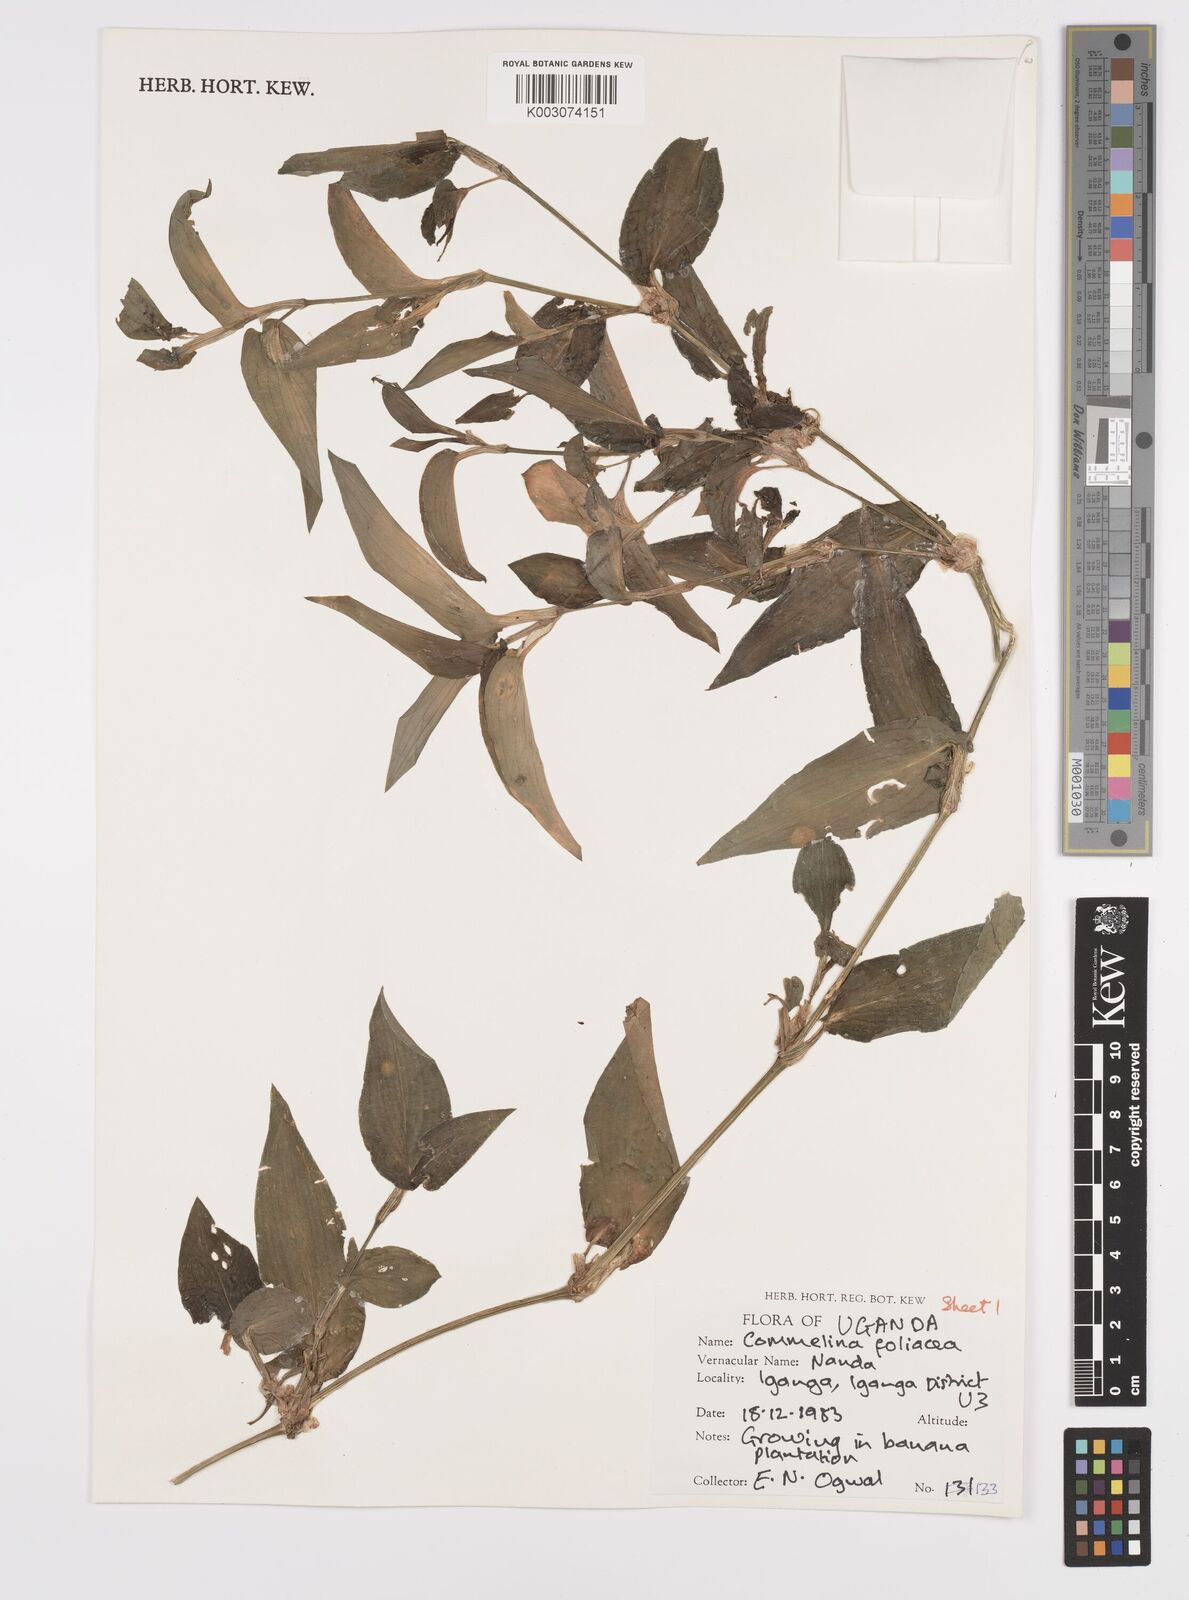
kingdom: Plantae
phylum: Tracheophyta
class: Liliopsida
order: Commelinales
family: Commelinaceae
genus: Commelina
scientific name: Commelina foliacea
